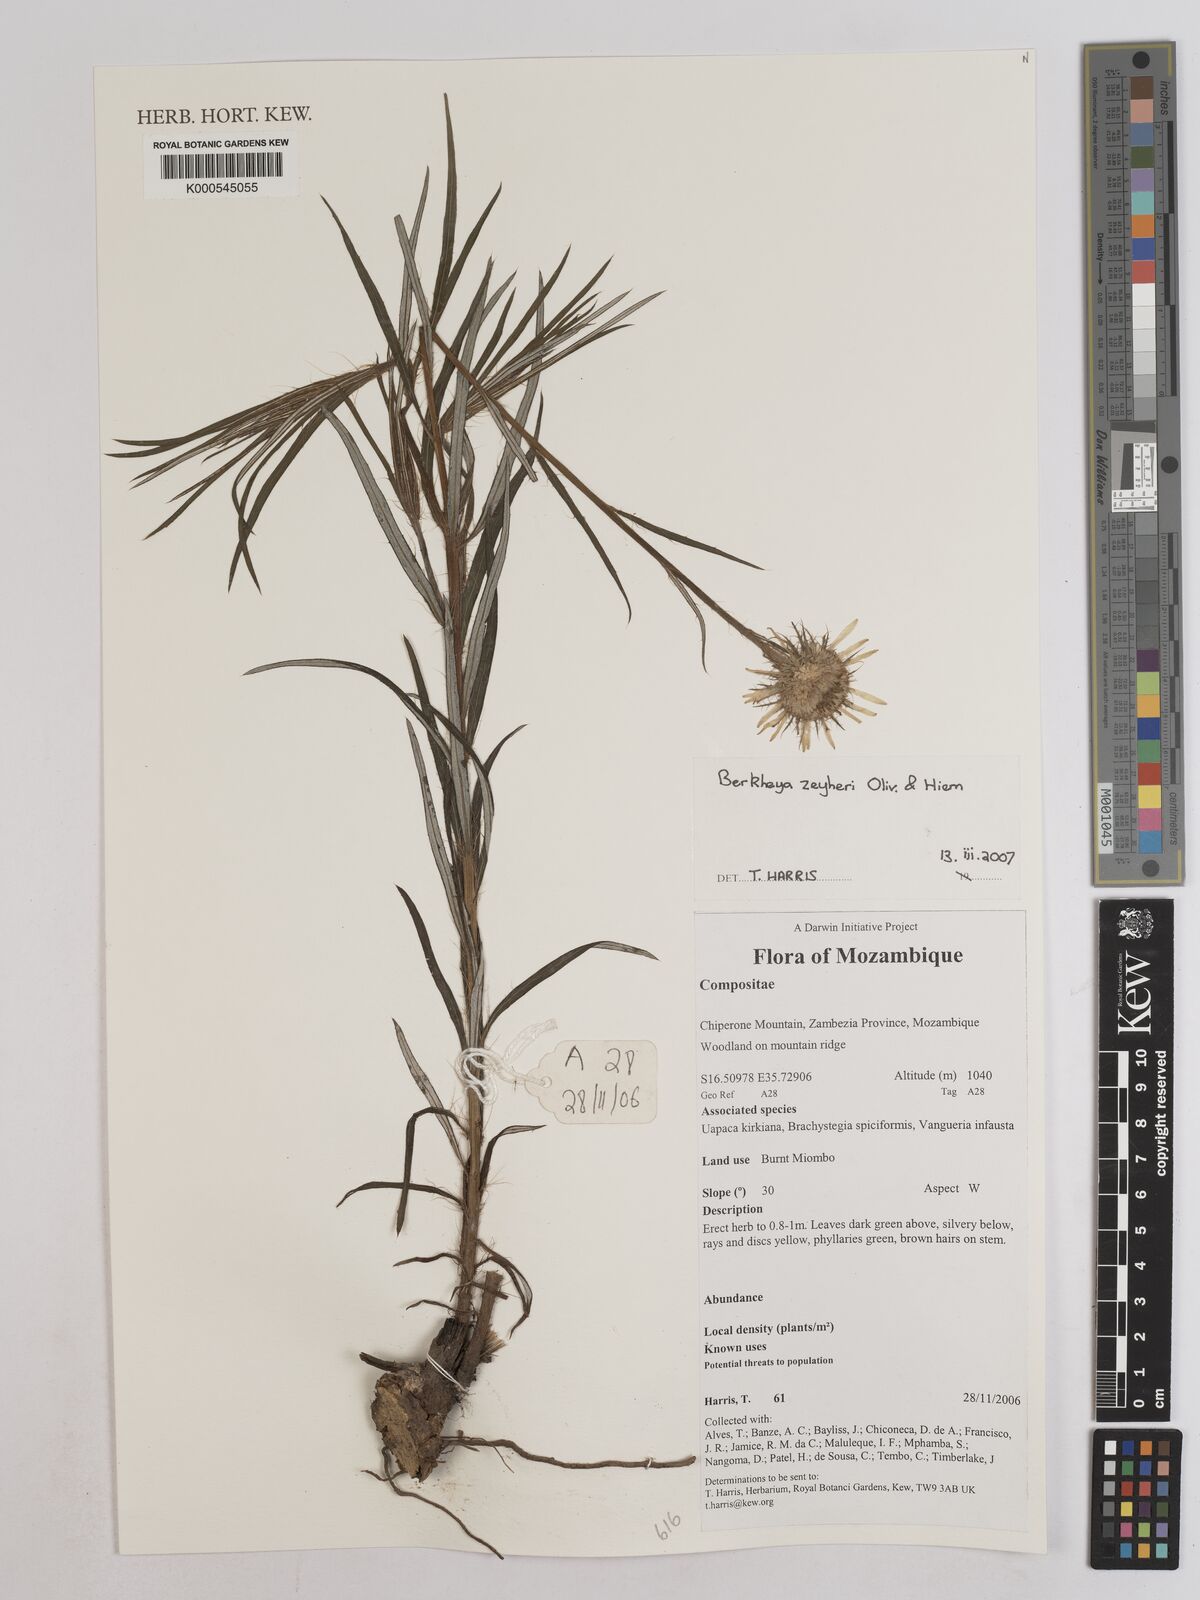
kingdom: Plantae
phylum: Tracheophyta
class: Magnoliopsida
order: Asterales
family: Asteraceae
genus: Berkheya
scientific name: Berkheya
